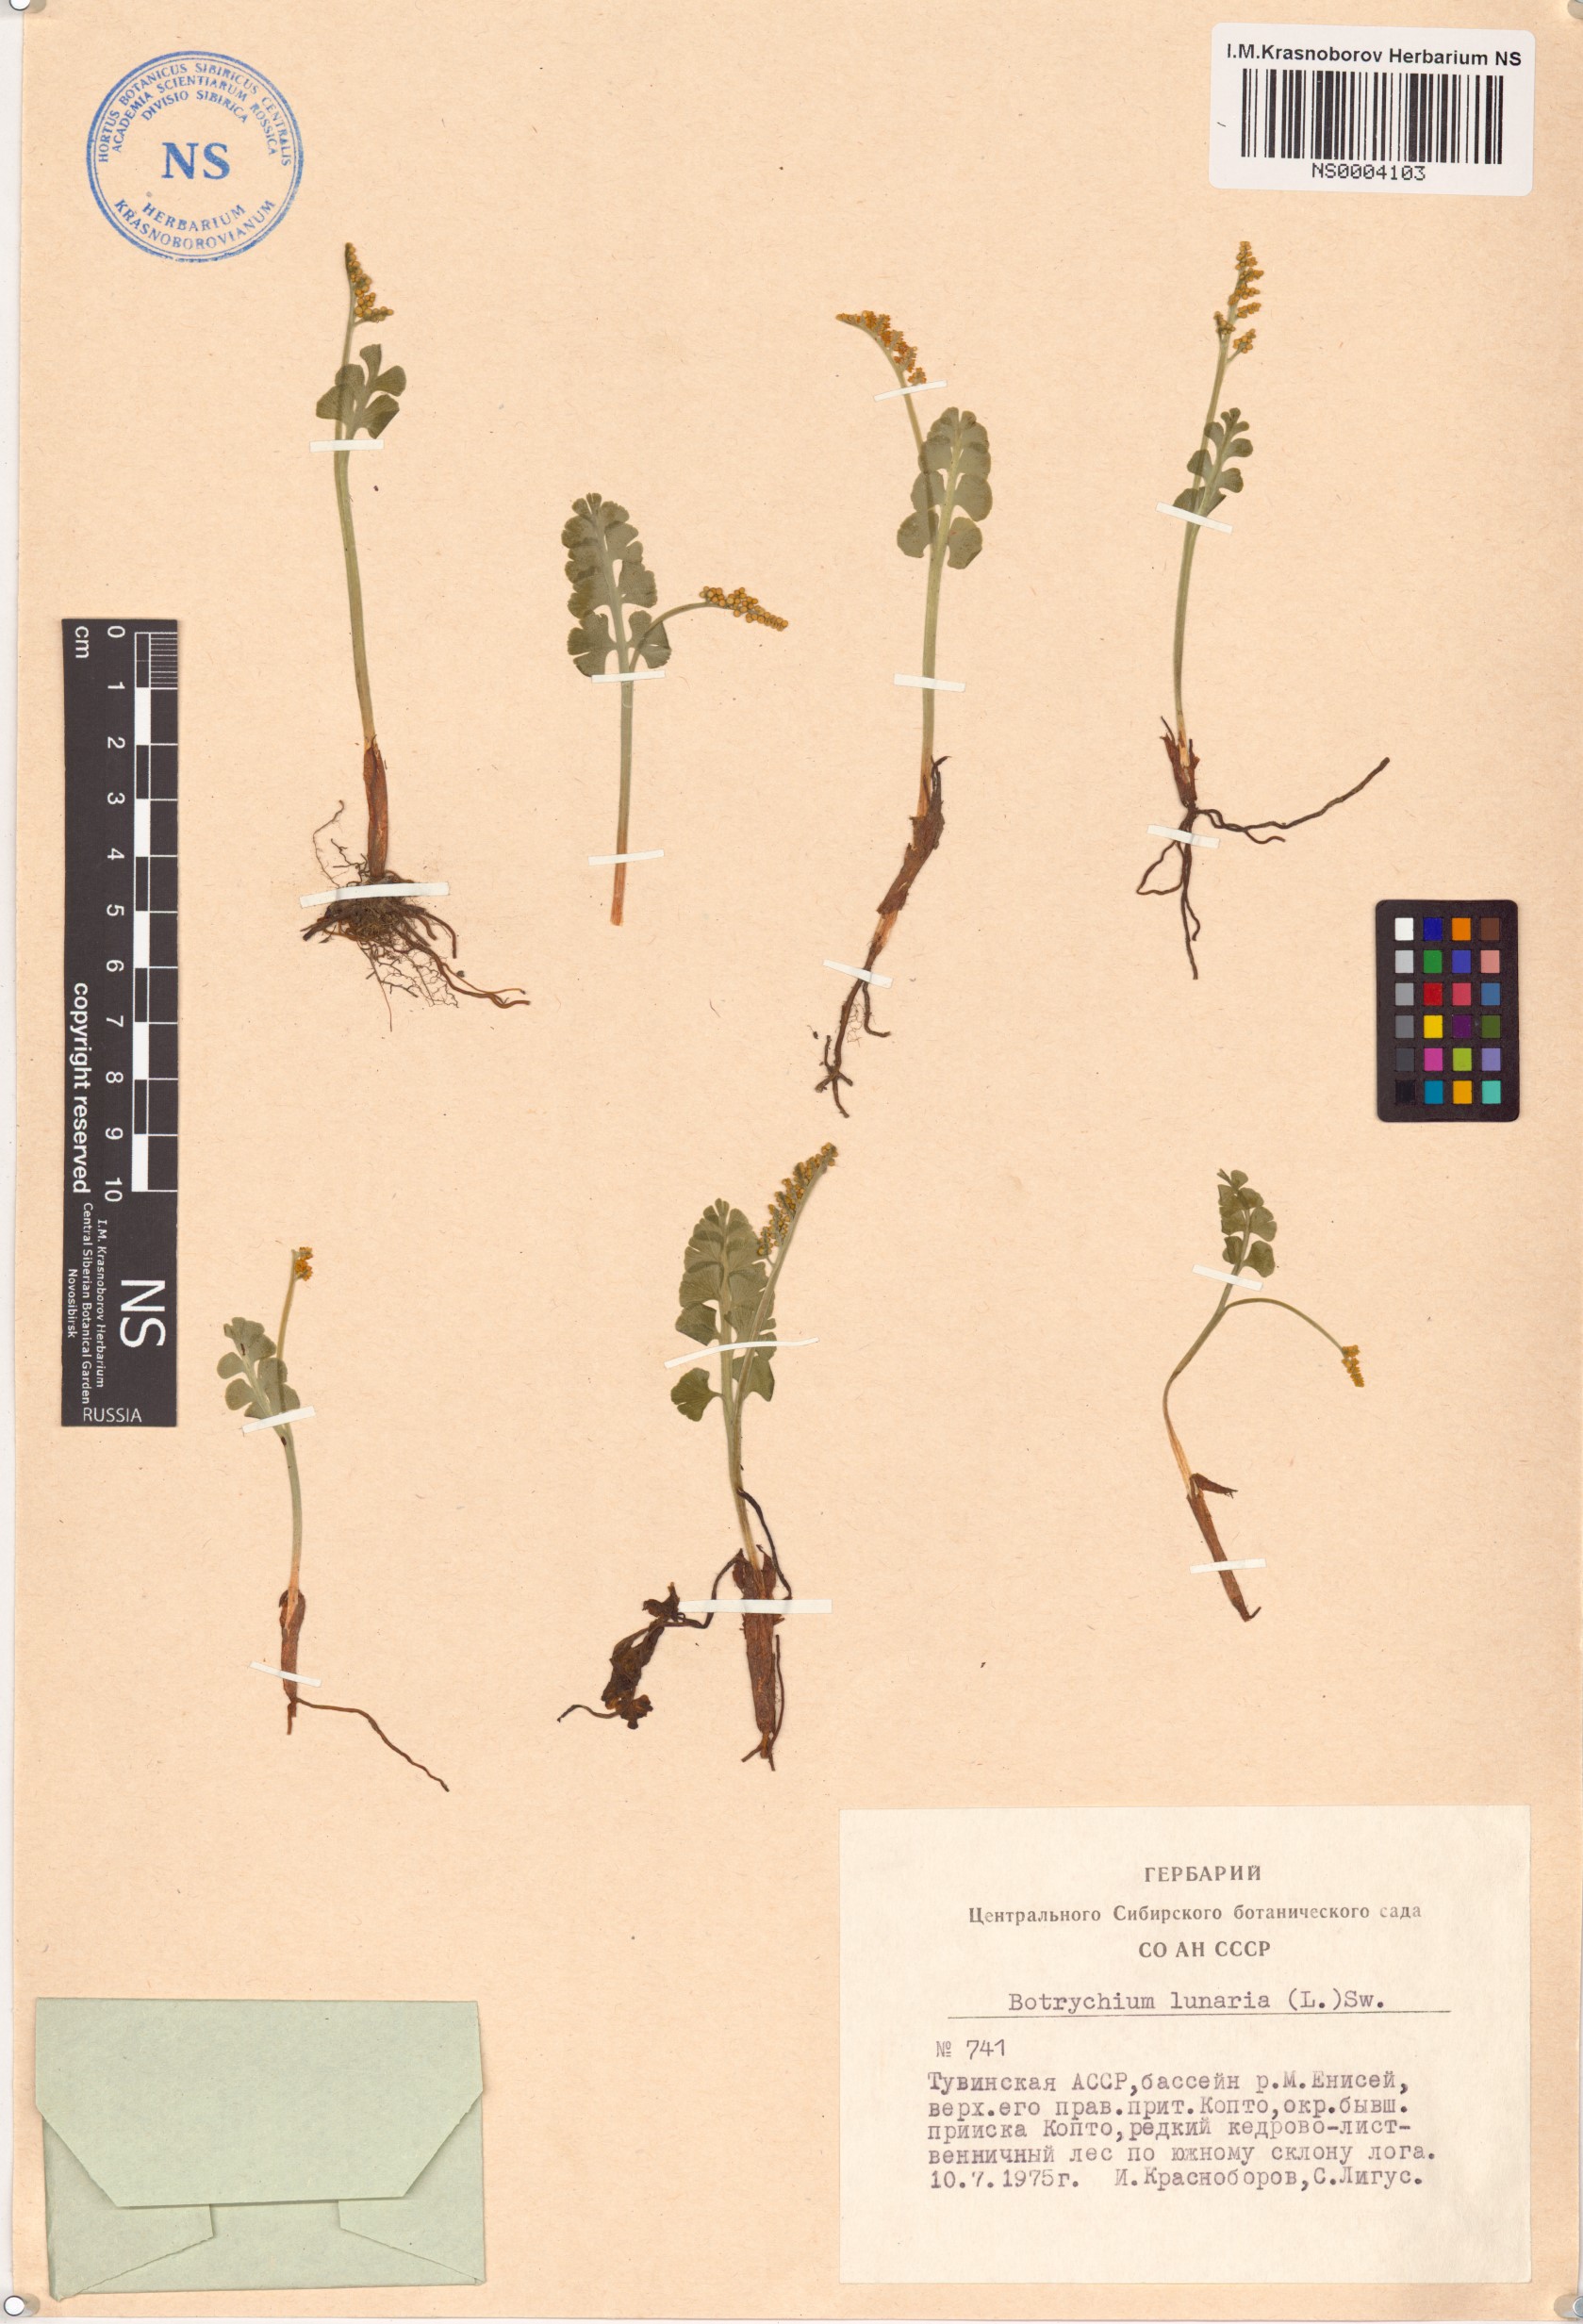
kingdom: Plantae
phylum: Tracheophyta
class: Polypodiopsida
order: Ophioglossales
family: Ophioglossaceae
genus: Botrychium
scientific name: Botrychium lunaria
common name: Moonwort
